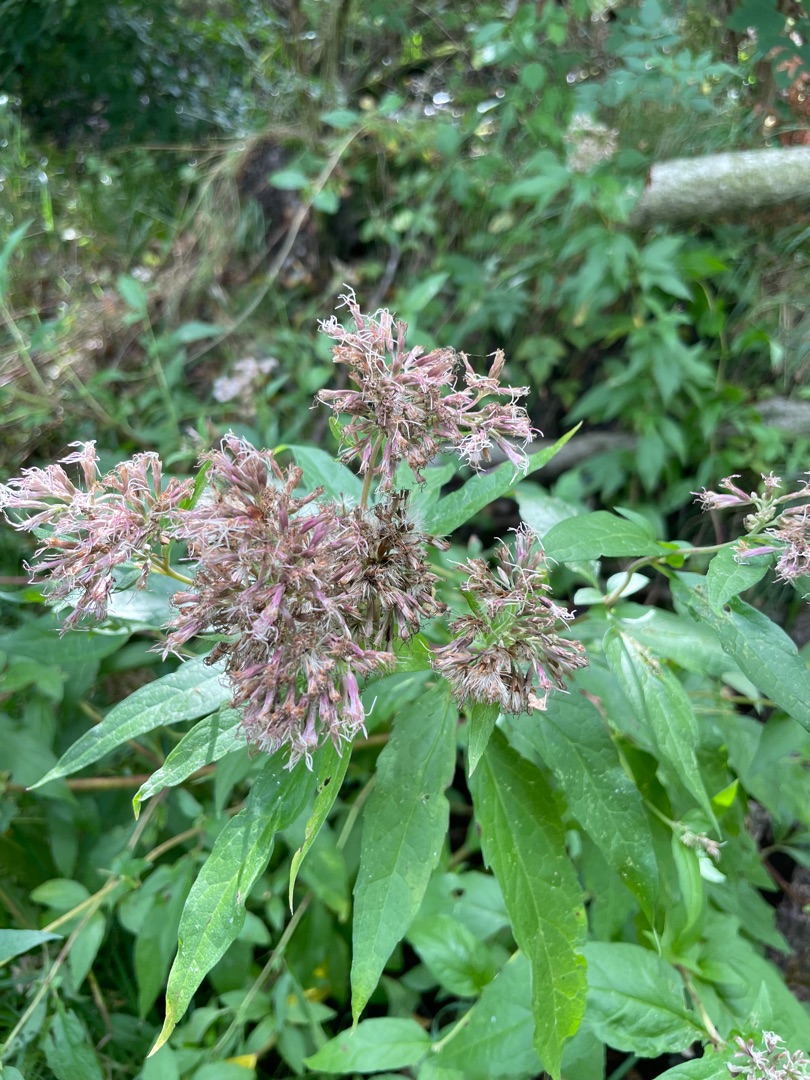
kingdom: Plantae
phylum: Tracheophyta
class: Magnoliopsida
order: Asterales
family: Asteraceae
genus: Eupatorium
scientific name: Eupatorium cannabinum
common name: Hjortetrøst
